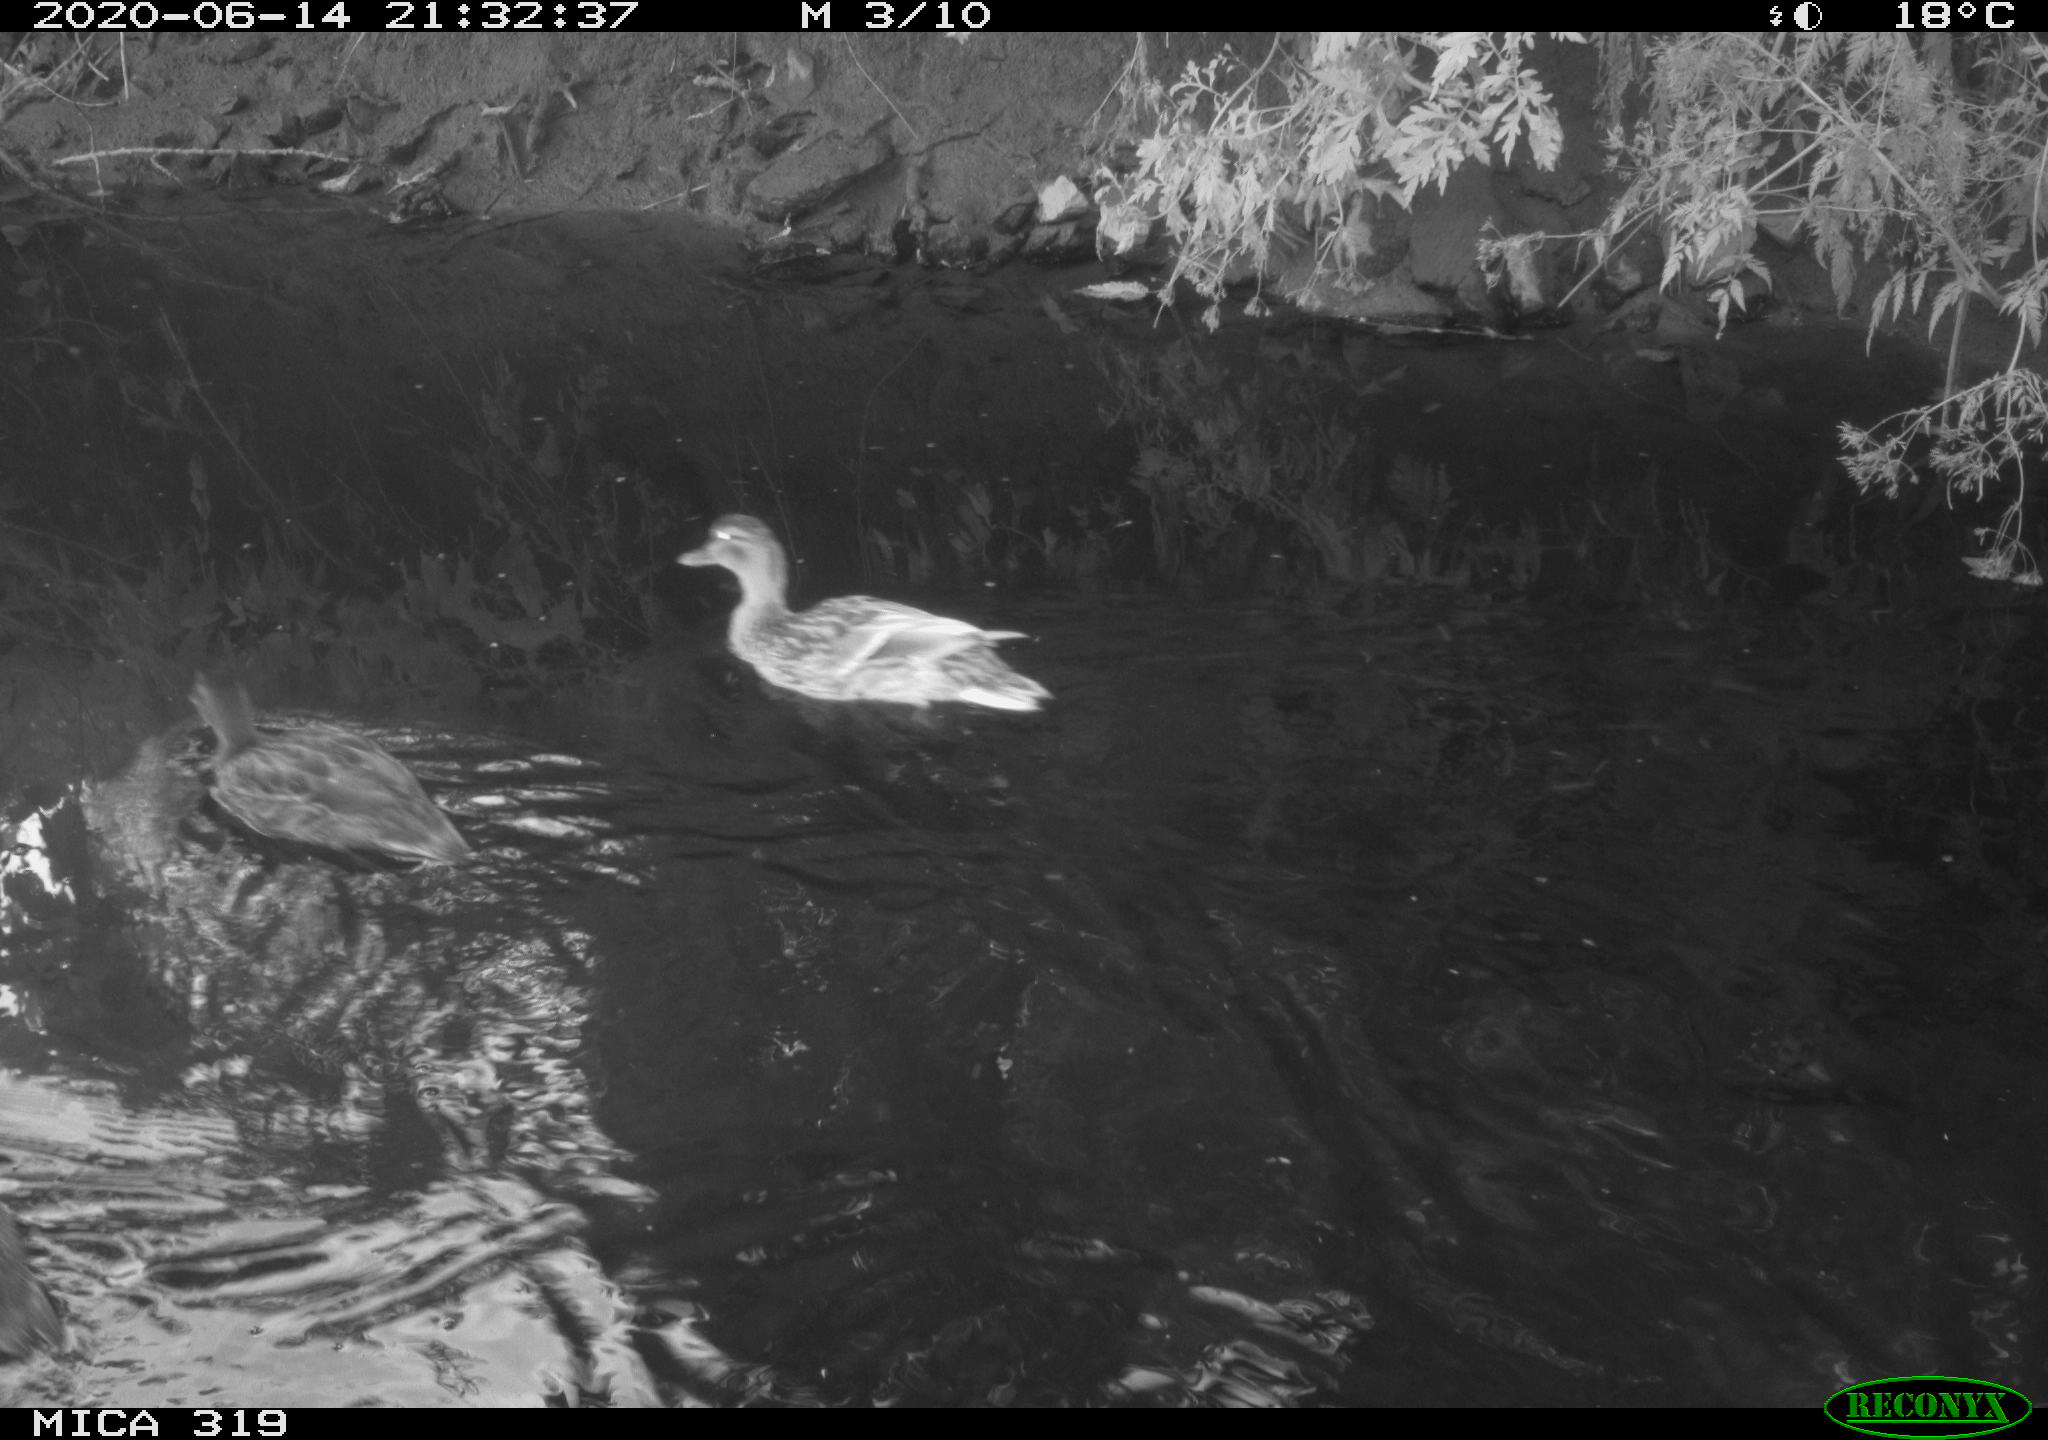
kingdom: Animalia
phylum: Chordata
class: Aves
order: Anseriformes
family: Anatidae
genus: Anas
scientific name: Anas platyrhynchos
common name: Mallard
